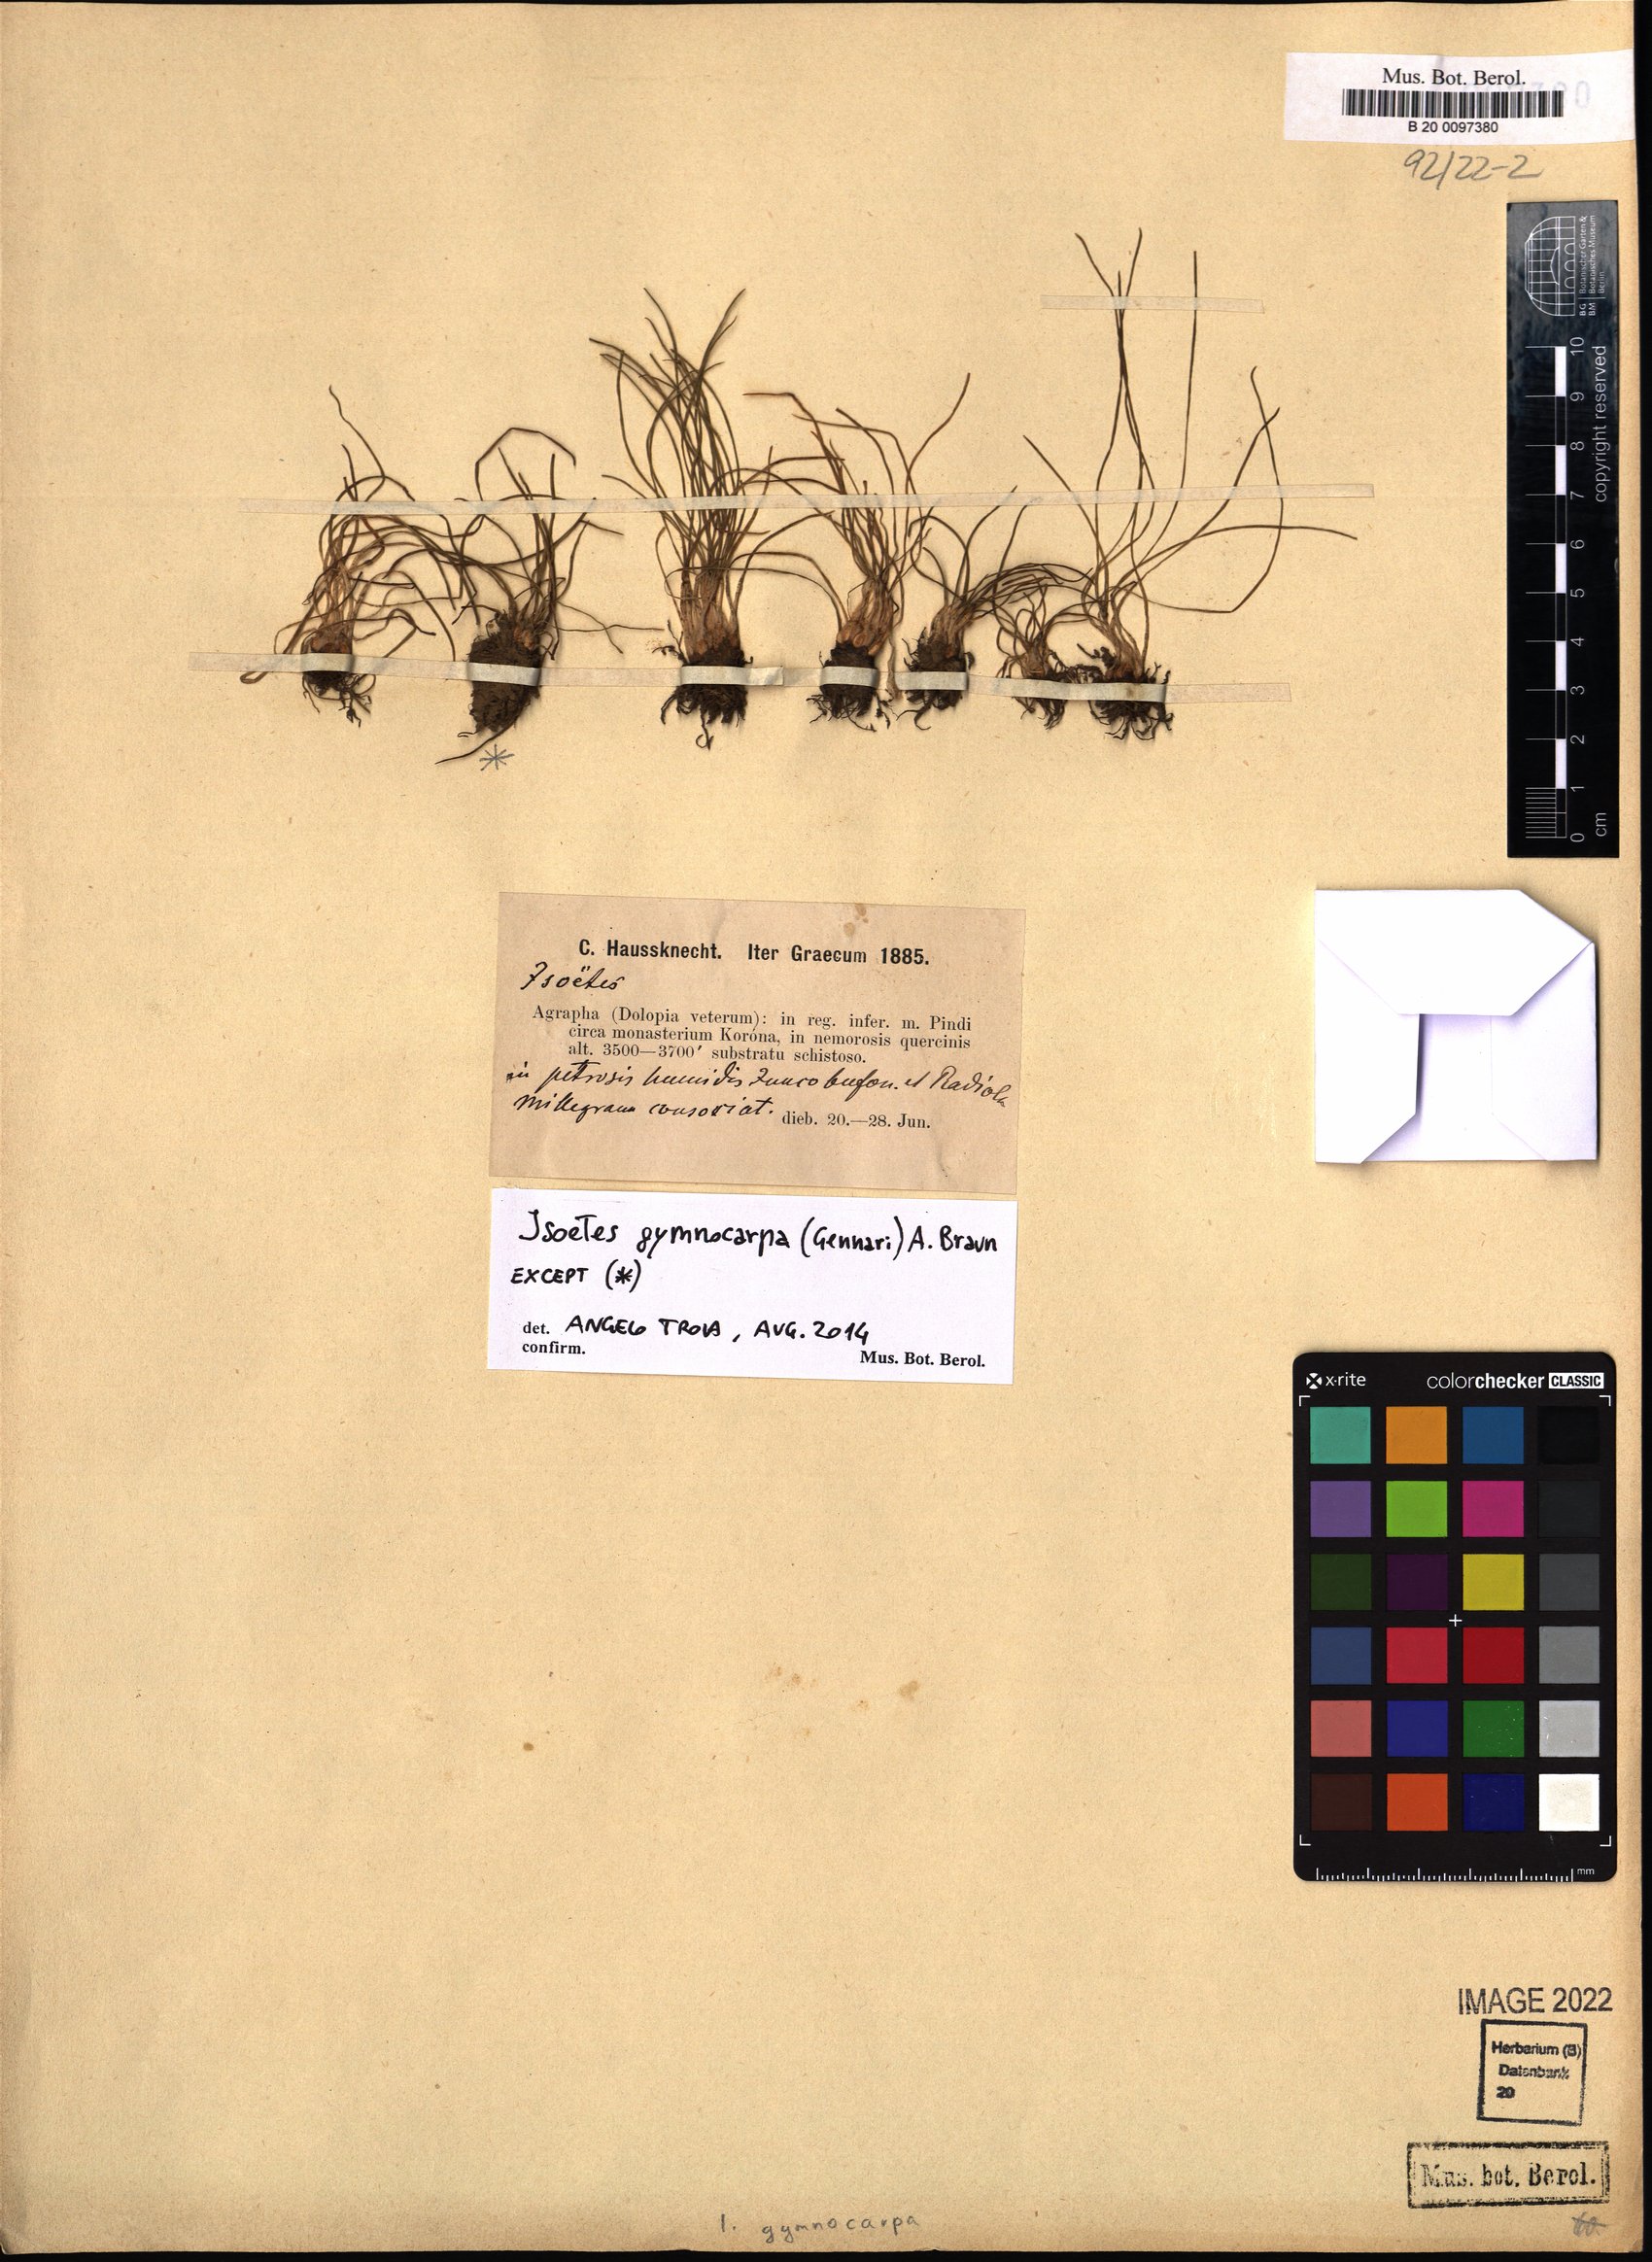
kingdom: Plantae
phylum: Tracheophyta
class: Lycopodiopsida
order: Isoetales
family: Isoetaceae
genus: Isoetes
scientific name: Isoetes gymnocarpa
